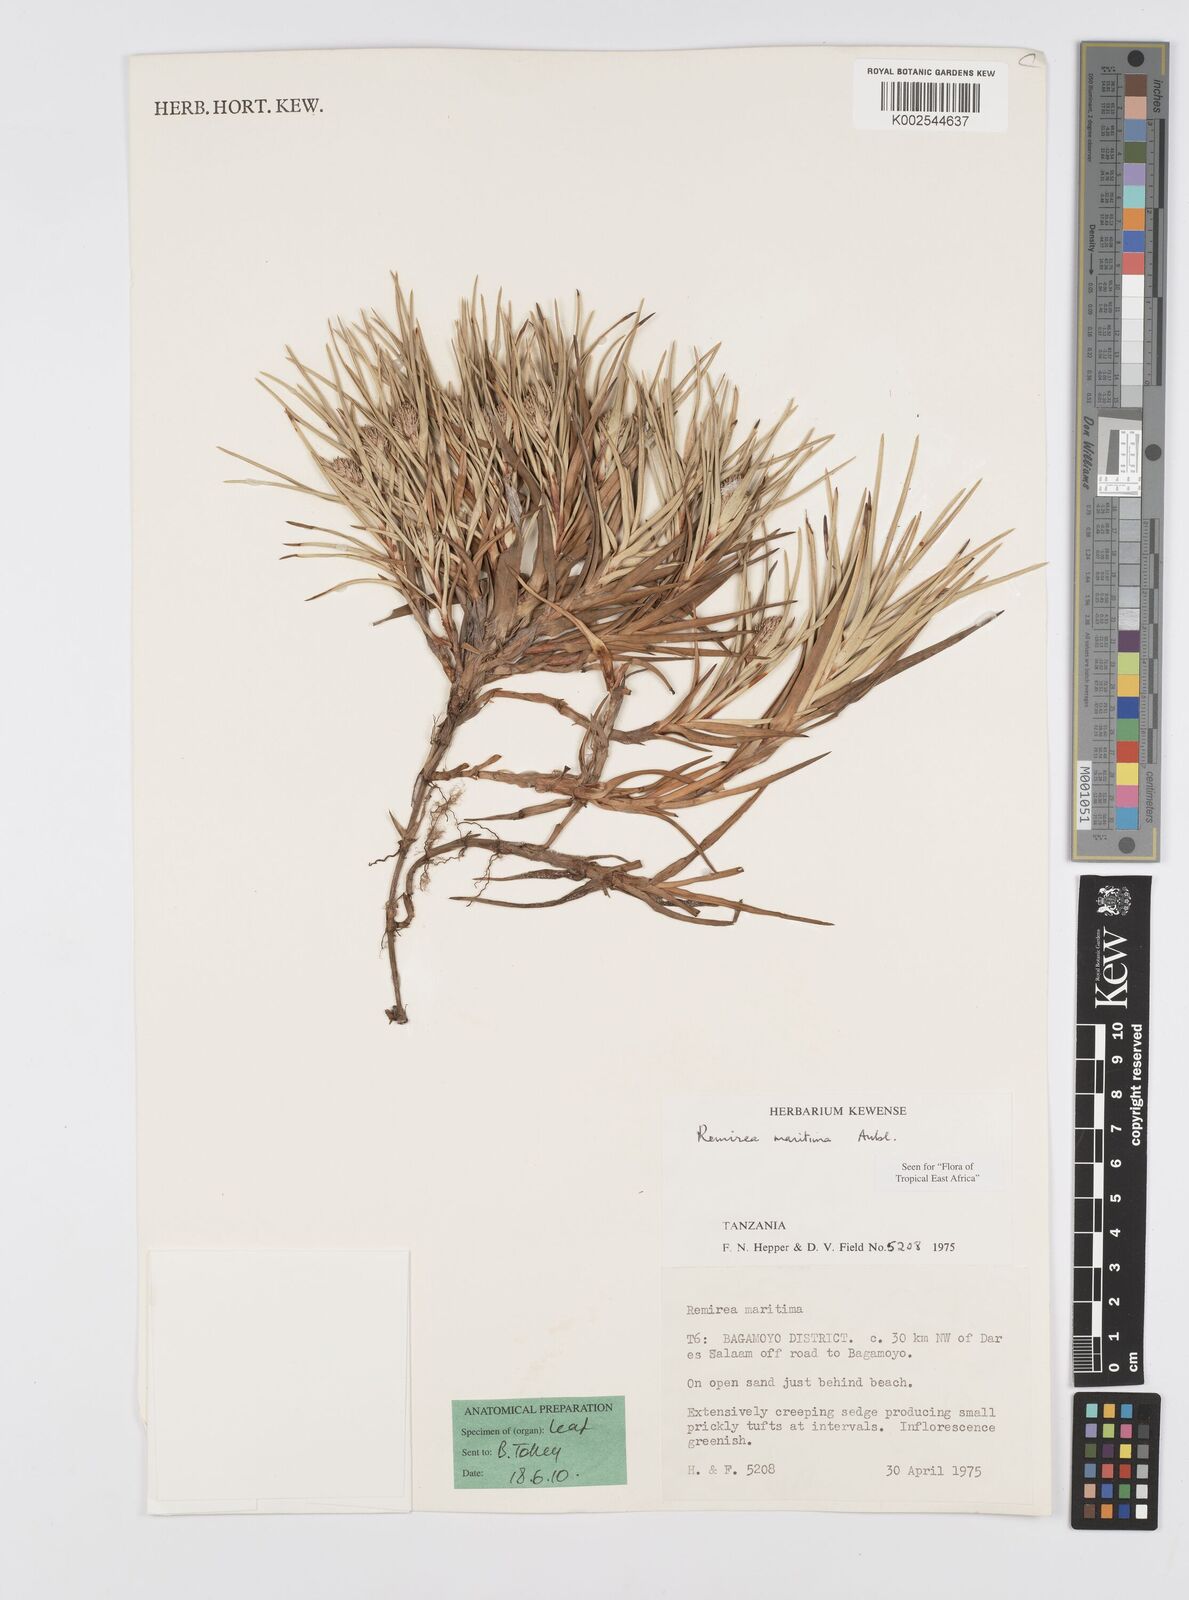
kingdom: Plantae
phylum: Tracheophyta
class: Liliopsida
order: Poales
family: Cyperaceae
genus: Cyperus
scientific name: Cyperus
